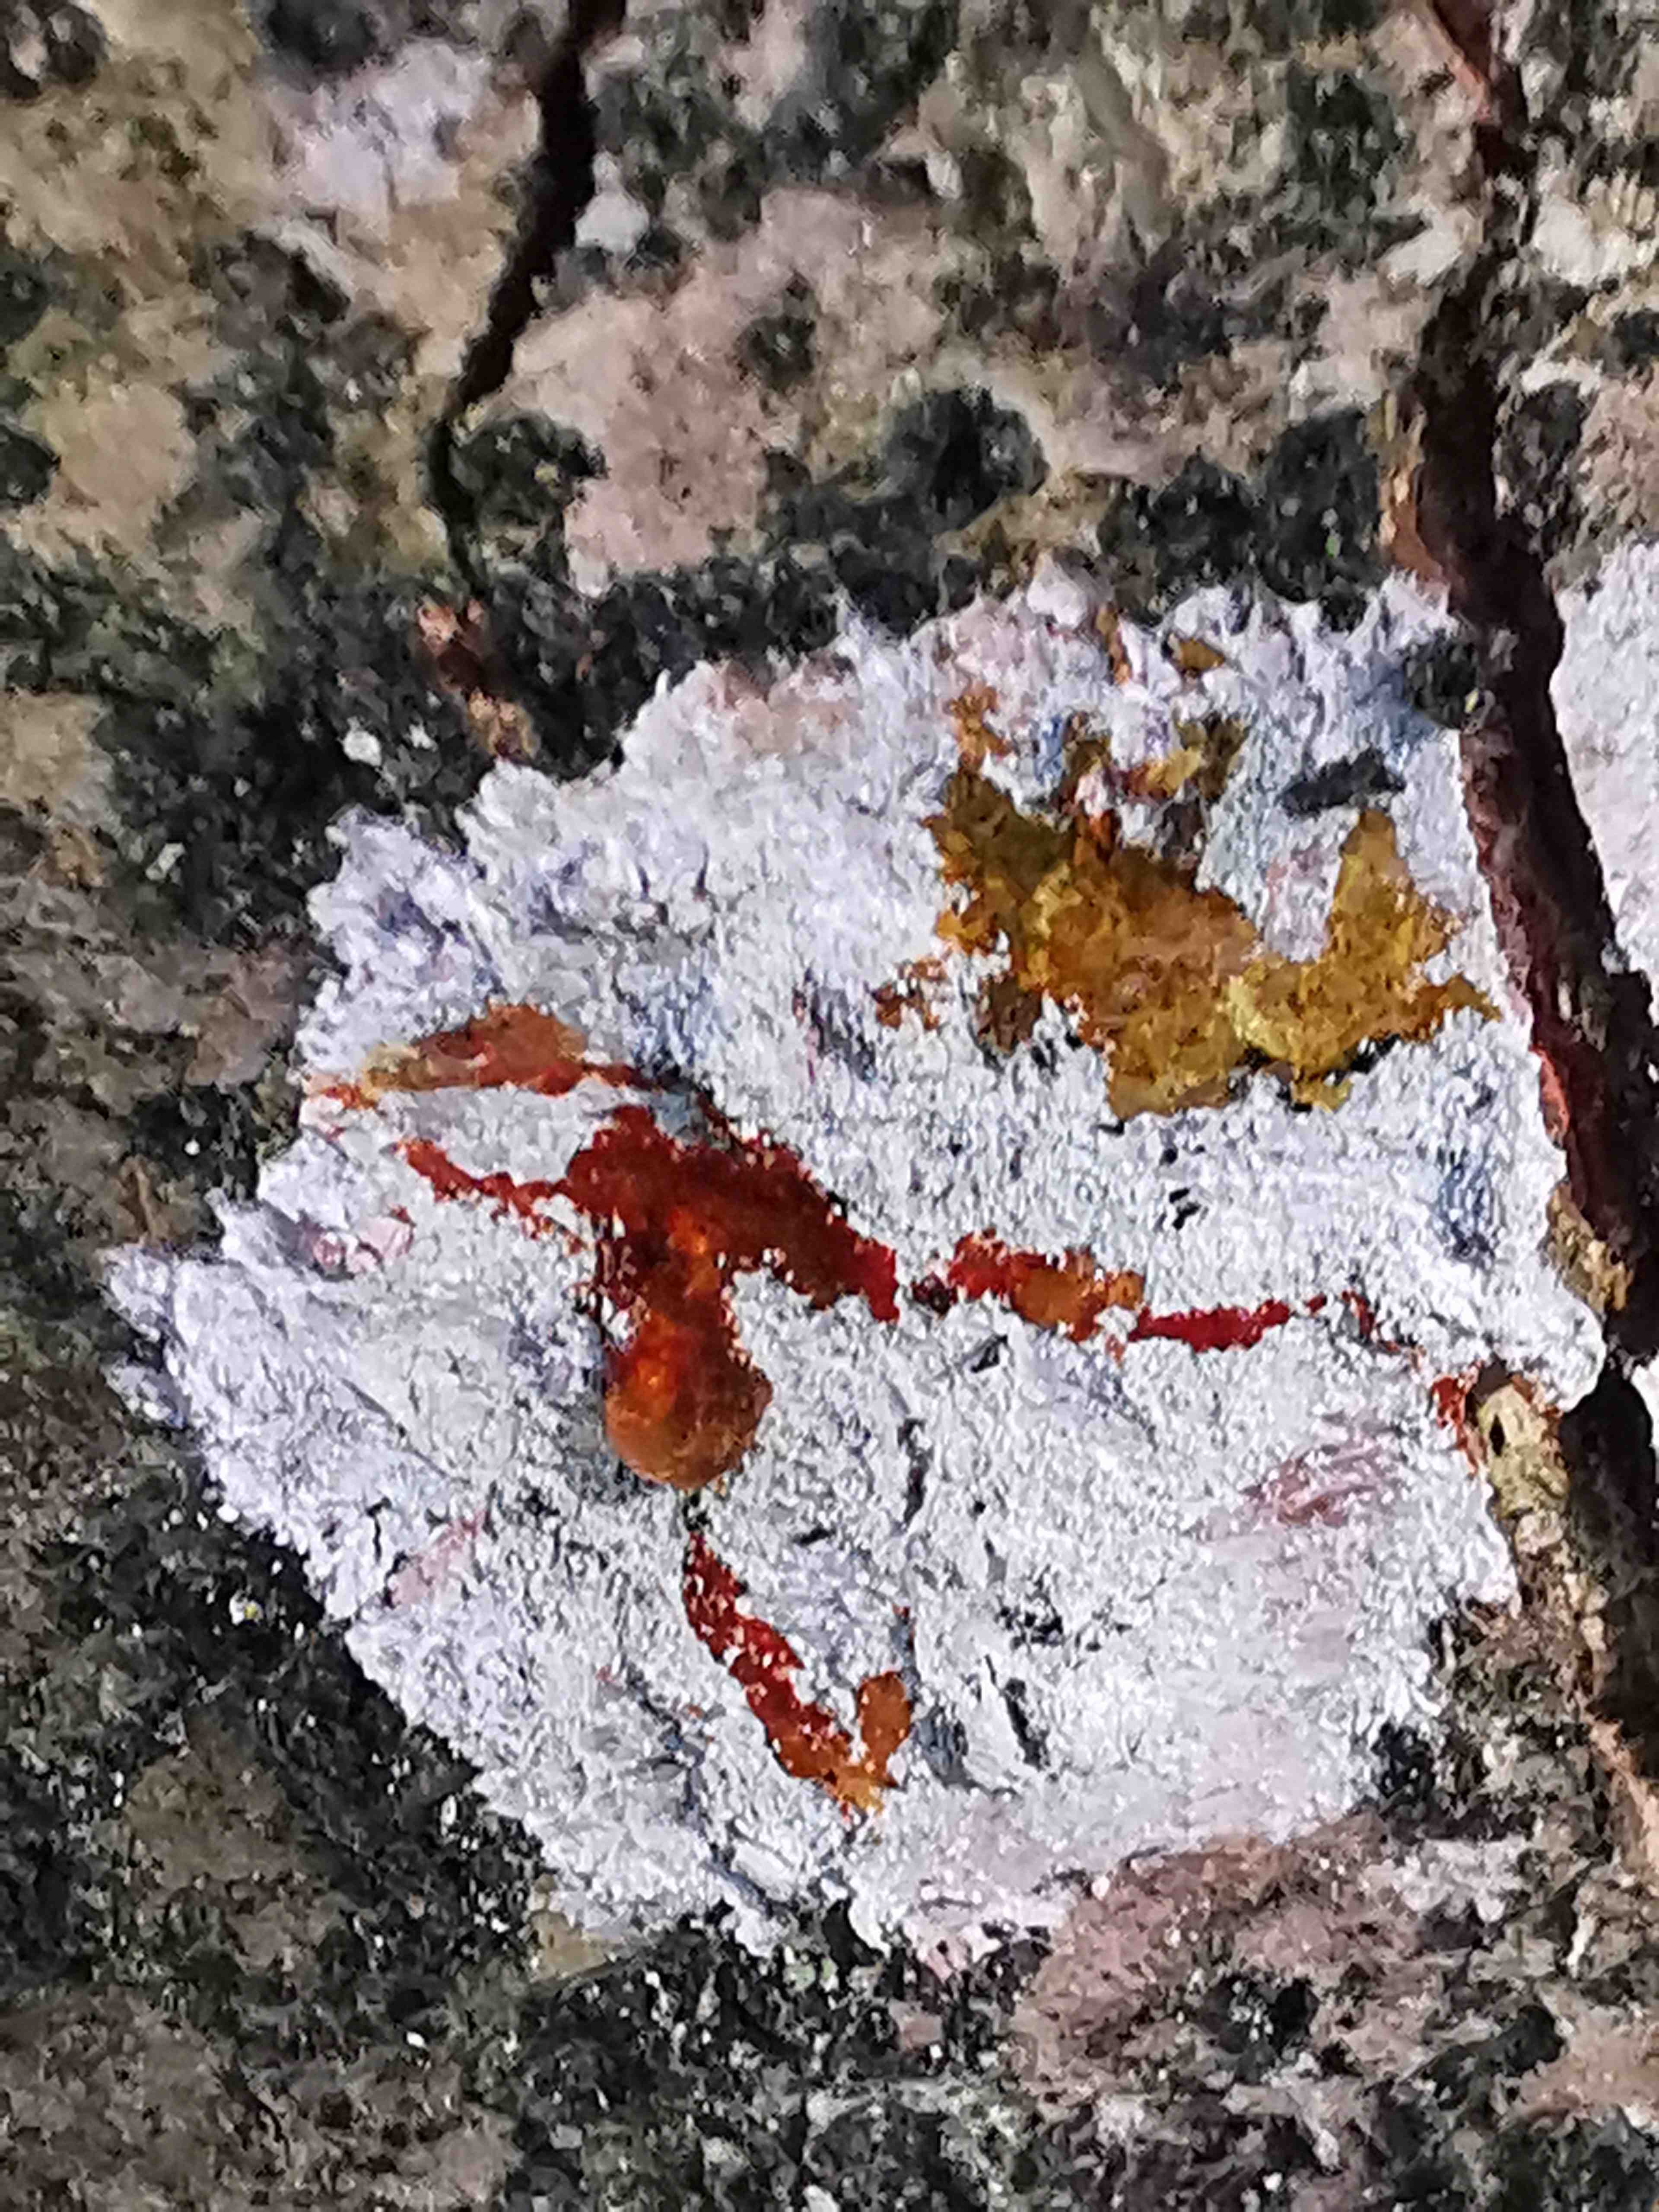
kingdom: Fungi
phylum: Ascomycota
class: Lecanoromycetes
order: Ostropales
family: Phlyctidaceae
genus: Phlyctis
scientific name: Phlyctis argena
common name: almindelig sølvlav
